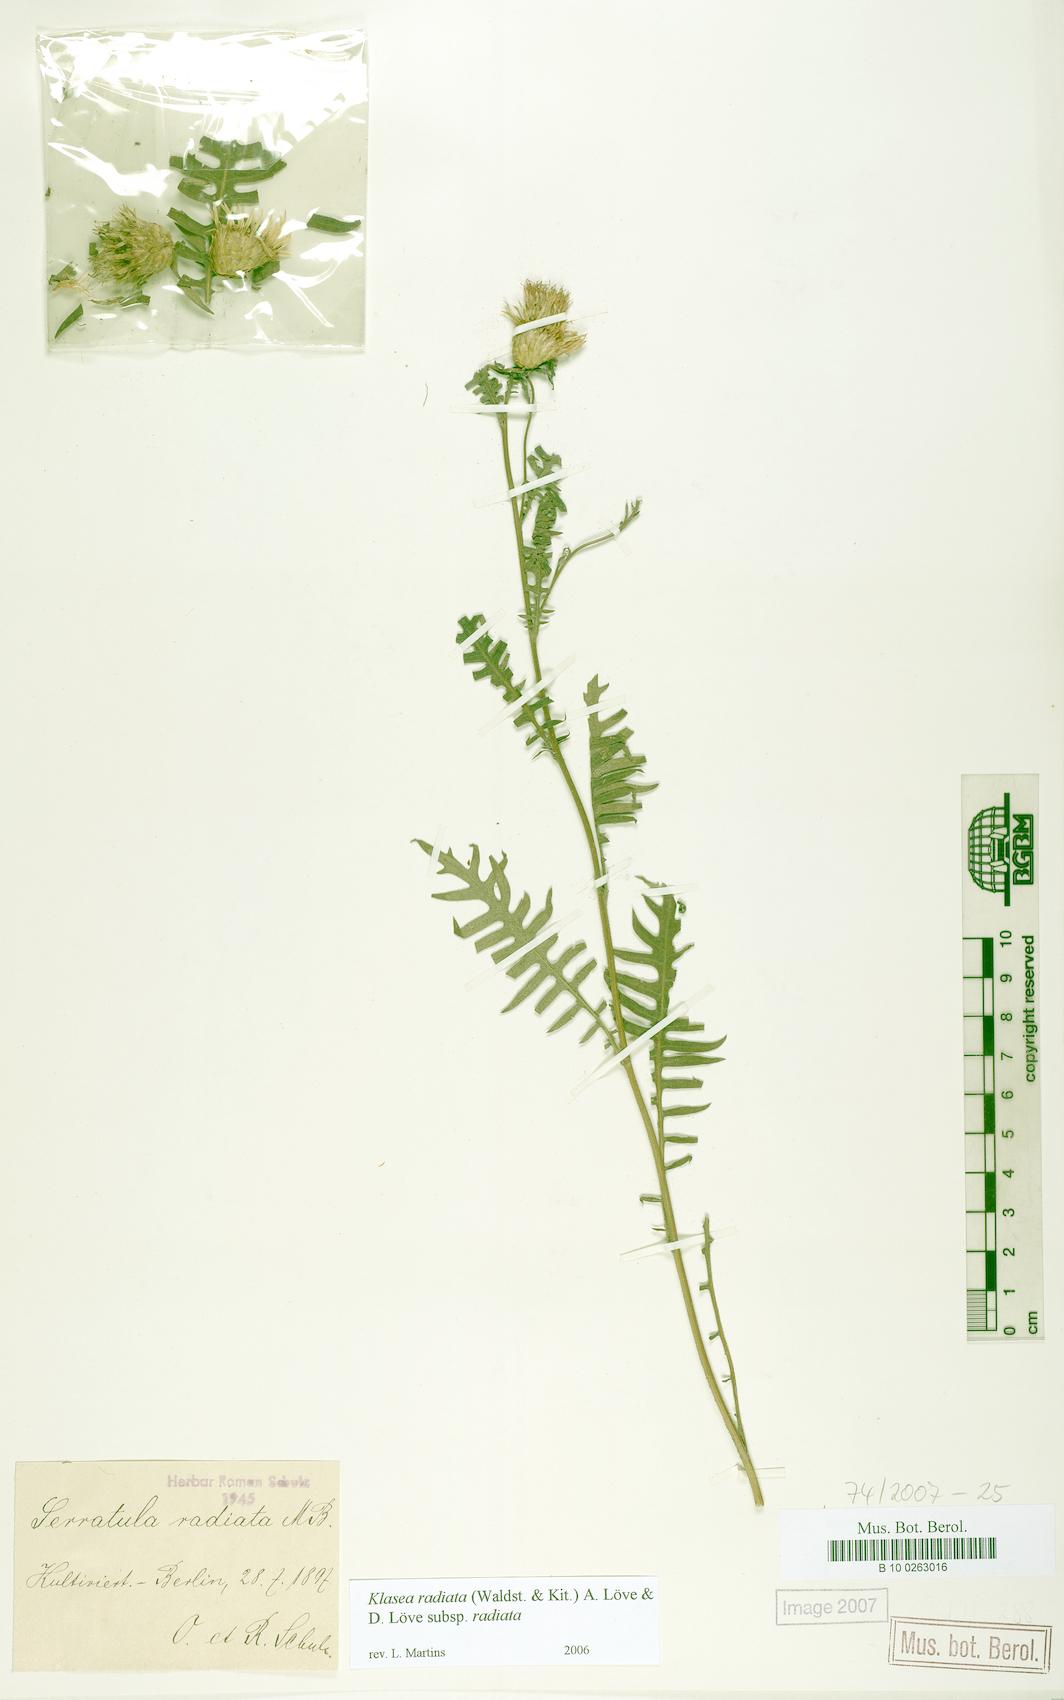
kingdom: Plantae
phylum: Tracheophyta
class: Magnoliopsida
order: Asterales
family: Asteraceae
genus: Klasea
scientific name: Klasea radiata
